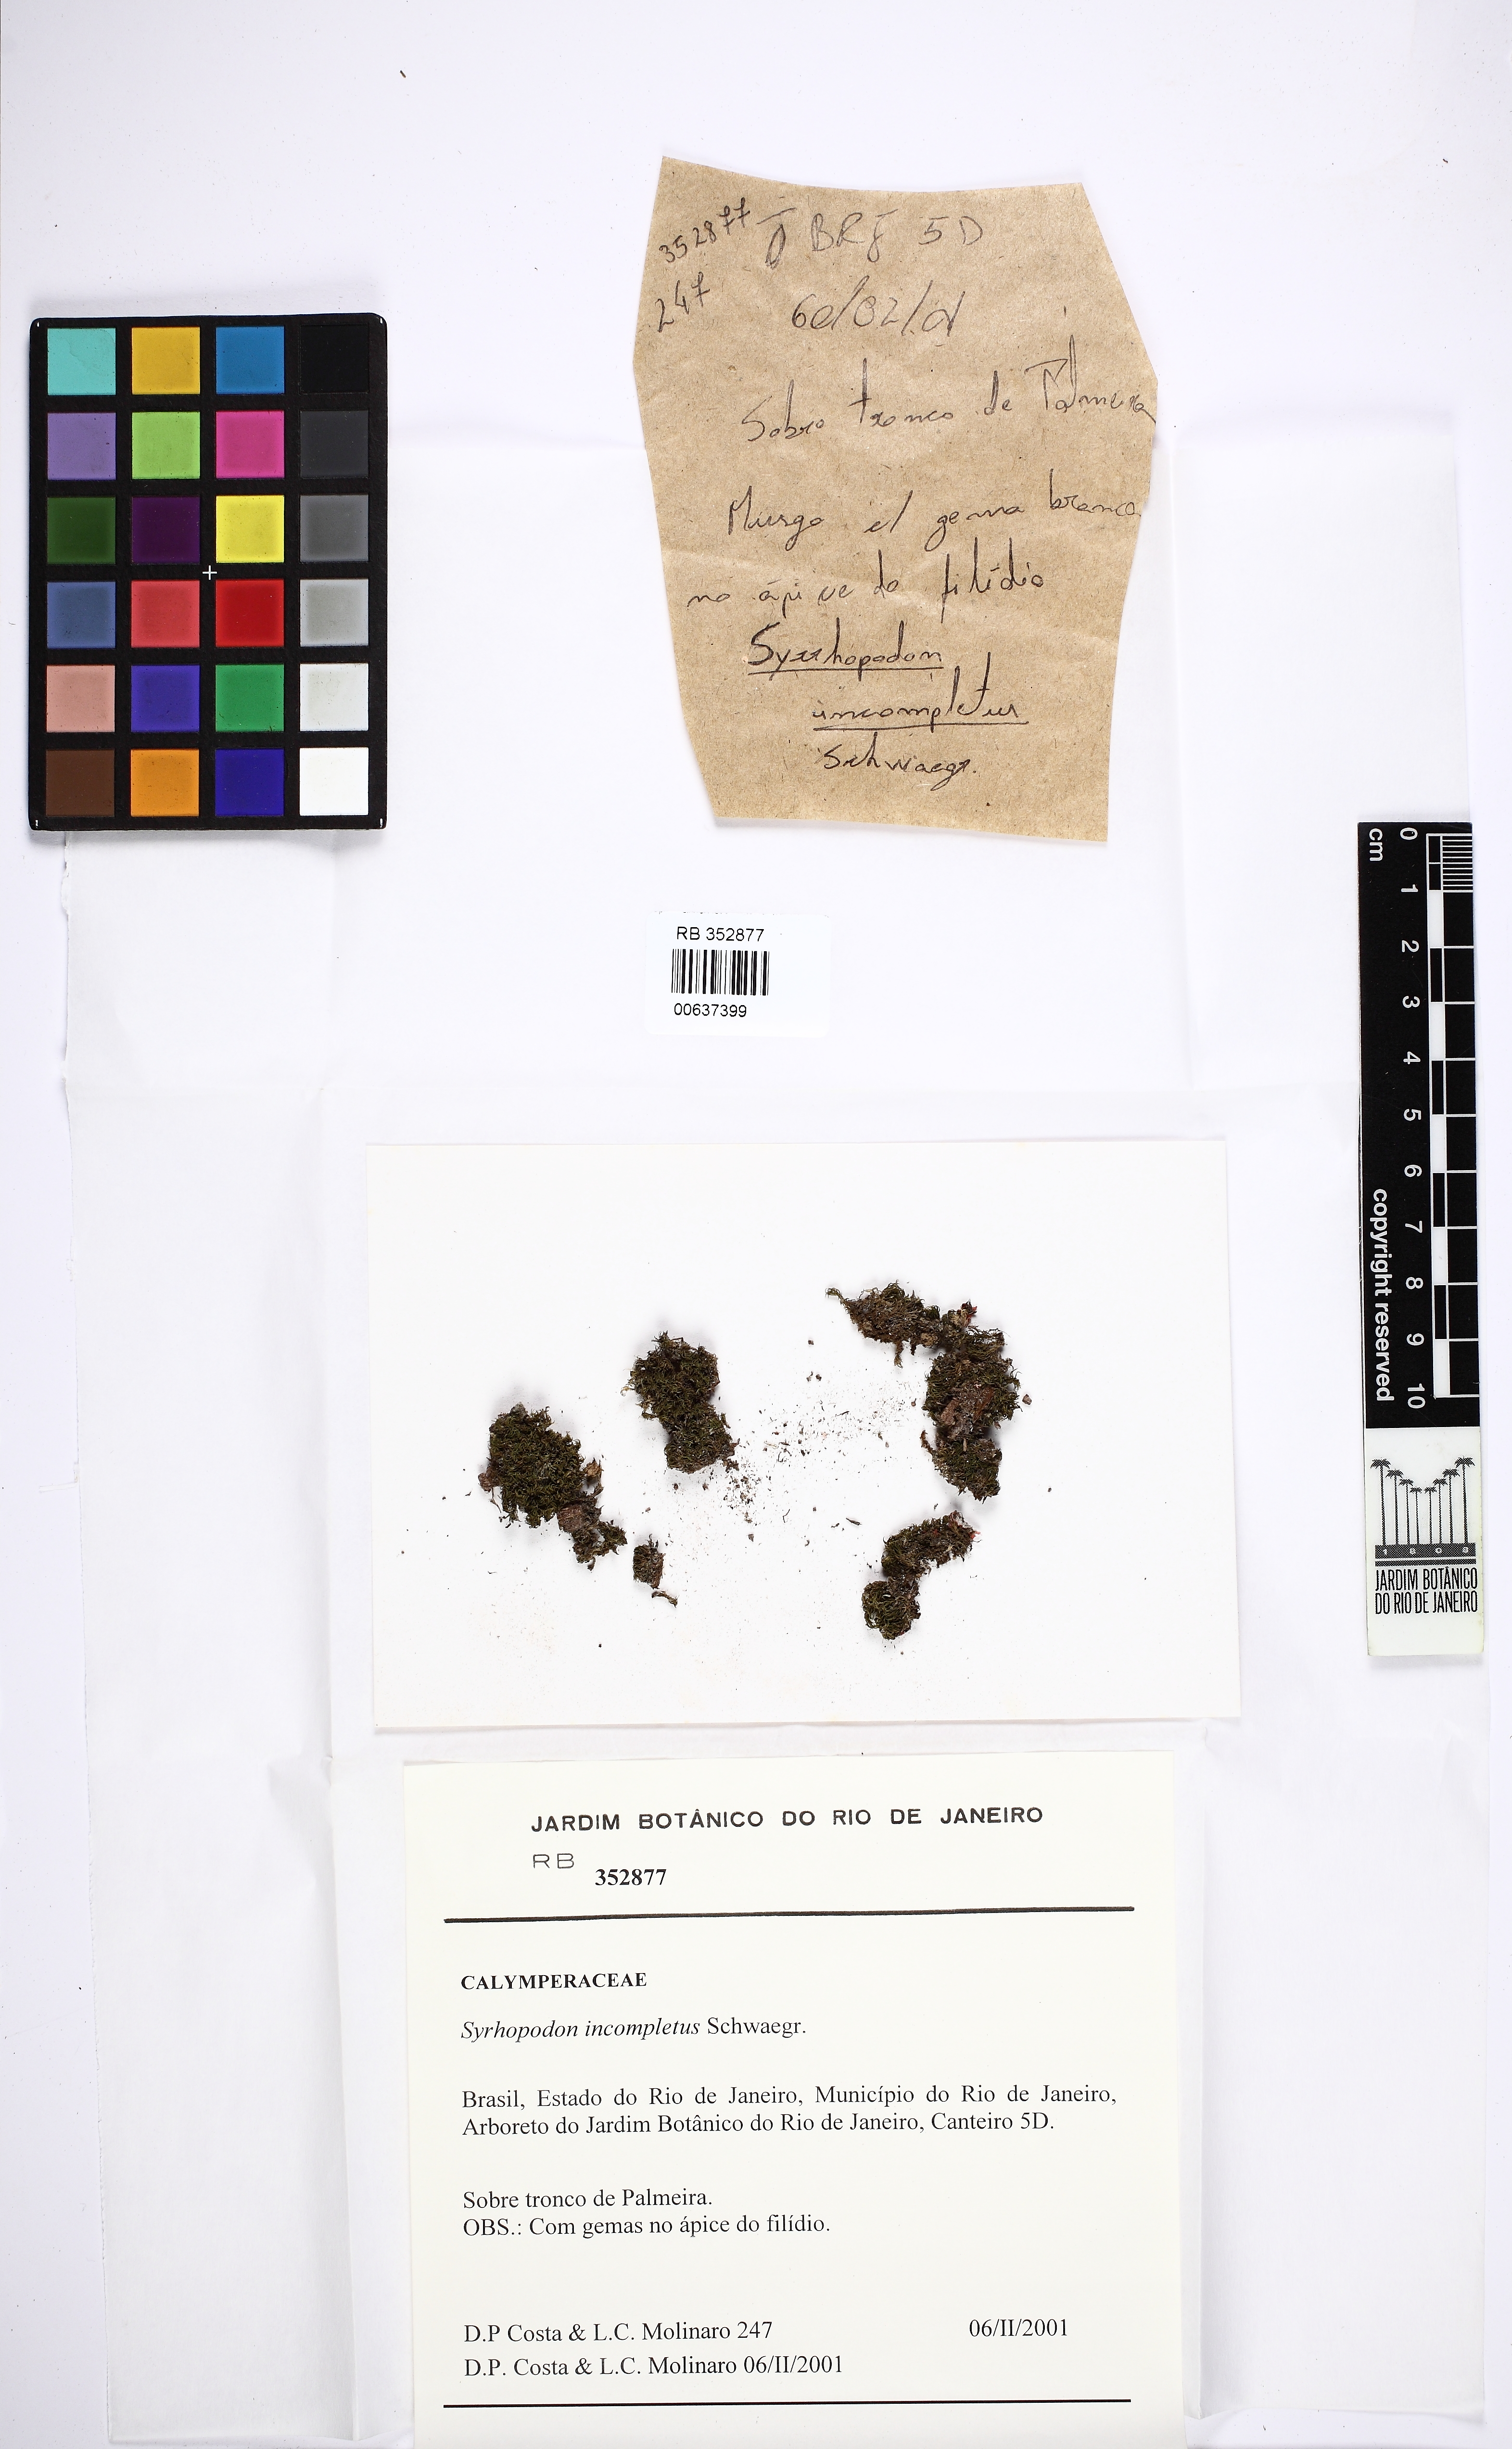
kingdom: Plantae
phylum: Bryophyta
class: Bryopsida
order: Dicranales
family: Calymperaceae
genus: Syrrhopodon
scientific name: Syrrhopodon incompletus
